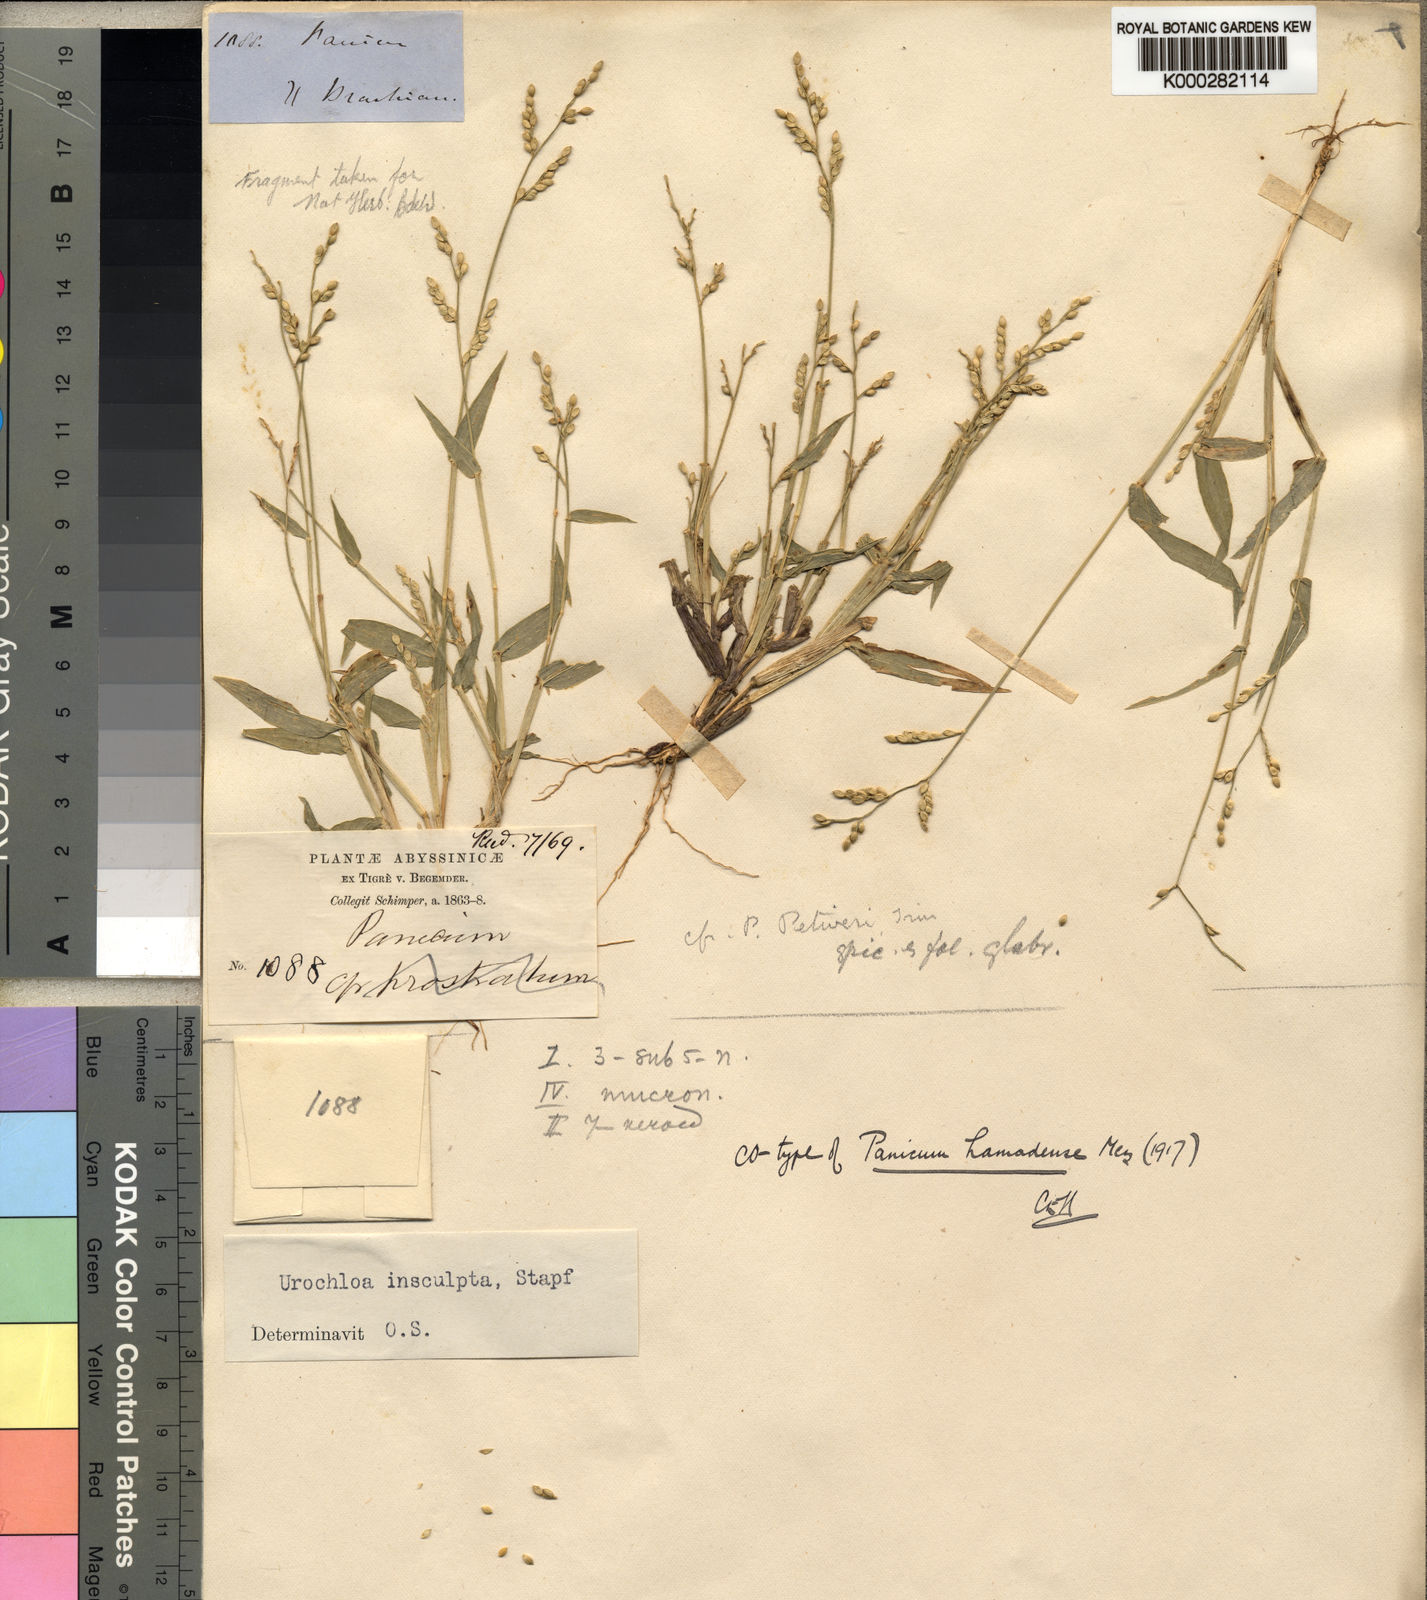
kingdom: Plantae
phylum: Tracheophyta
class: Liliopsida
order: Poales
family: Poaceae
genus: Urochloa
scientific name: Urochloa lata
